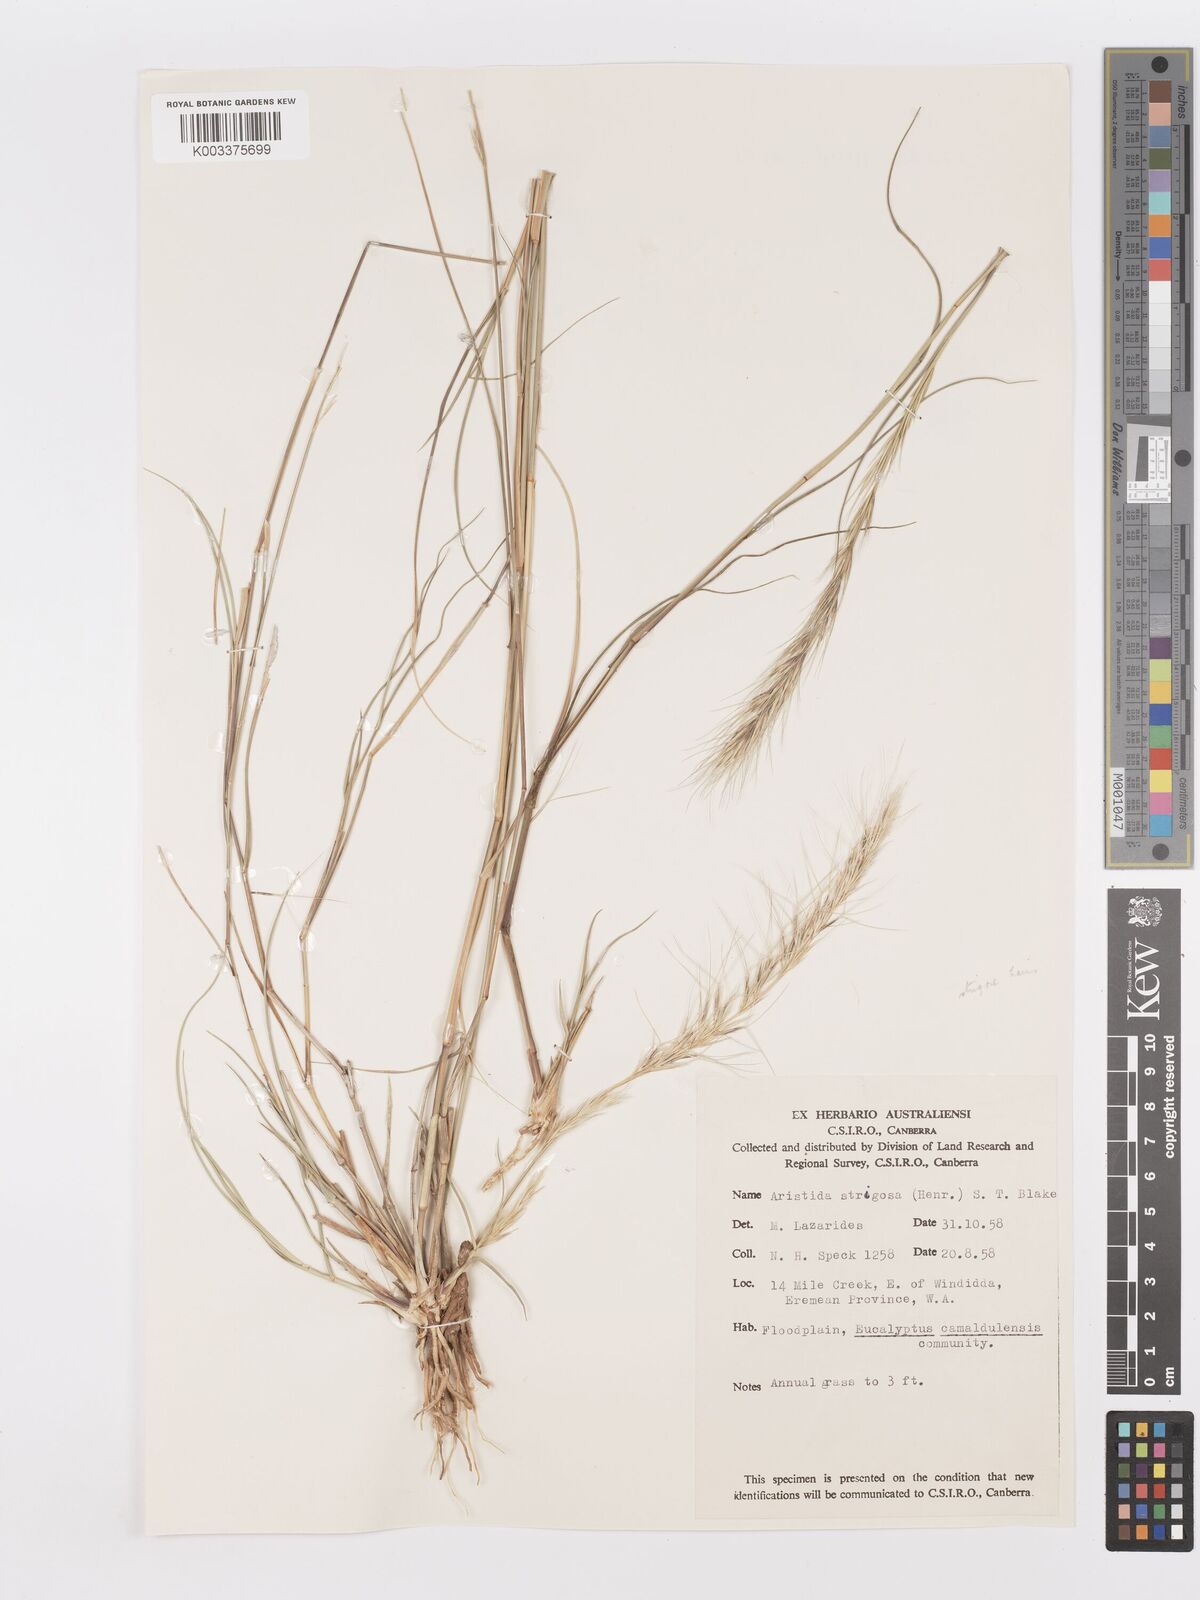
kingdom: Plantae
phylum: Tracheophyta
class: Liliopsida
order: Poales
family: Poaceae
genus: Aristida
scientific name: Aristida strigosa
